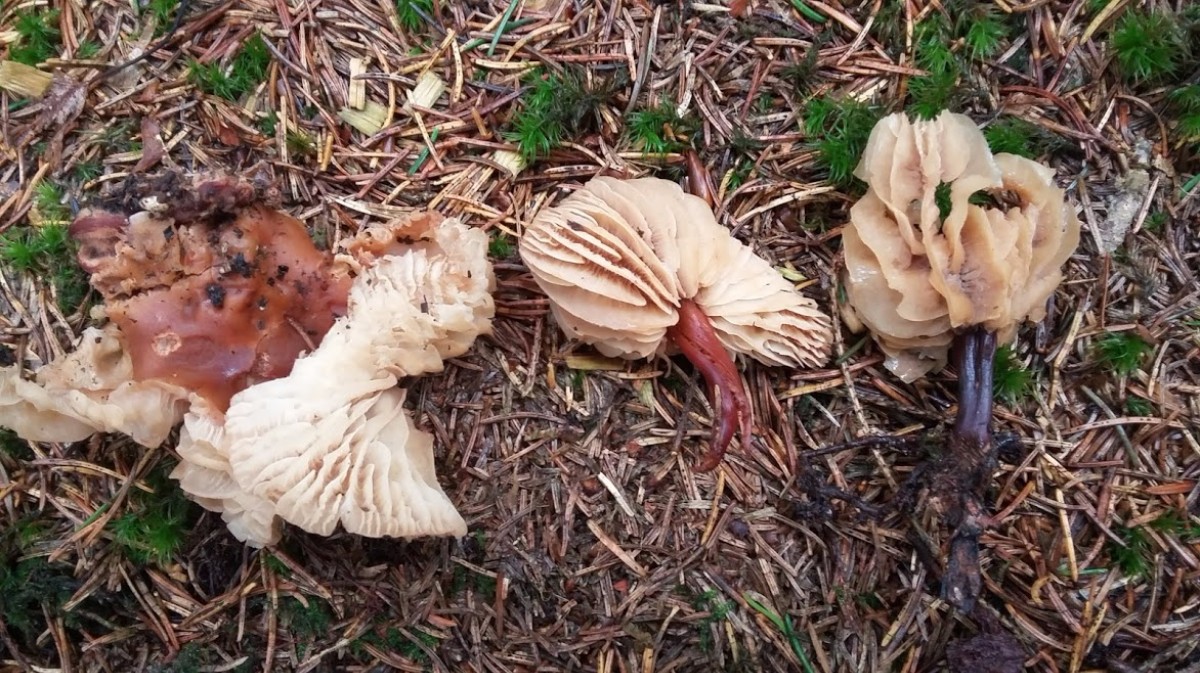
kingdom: Fungi
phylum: Basidiomycota
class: Agaricomycetes
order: Agaricales
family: Tricholomataceae
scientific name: Tricholomataceae
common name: ridderhatfamilien
